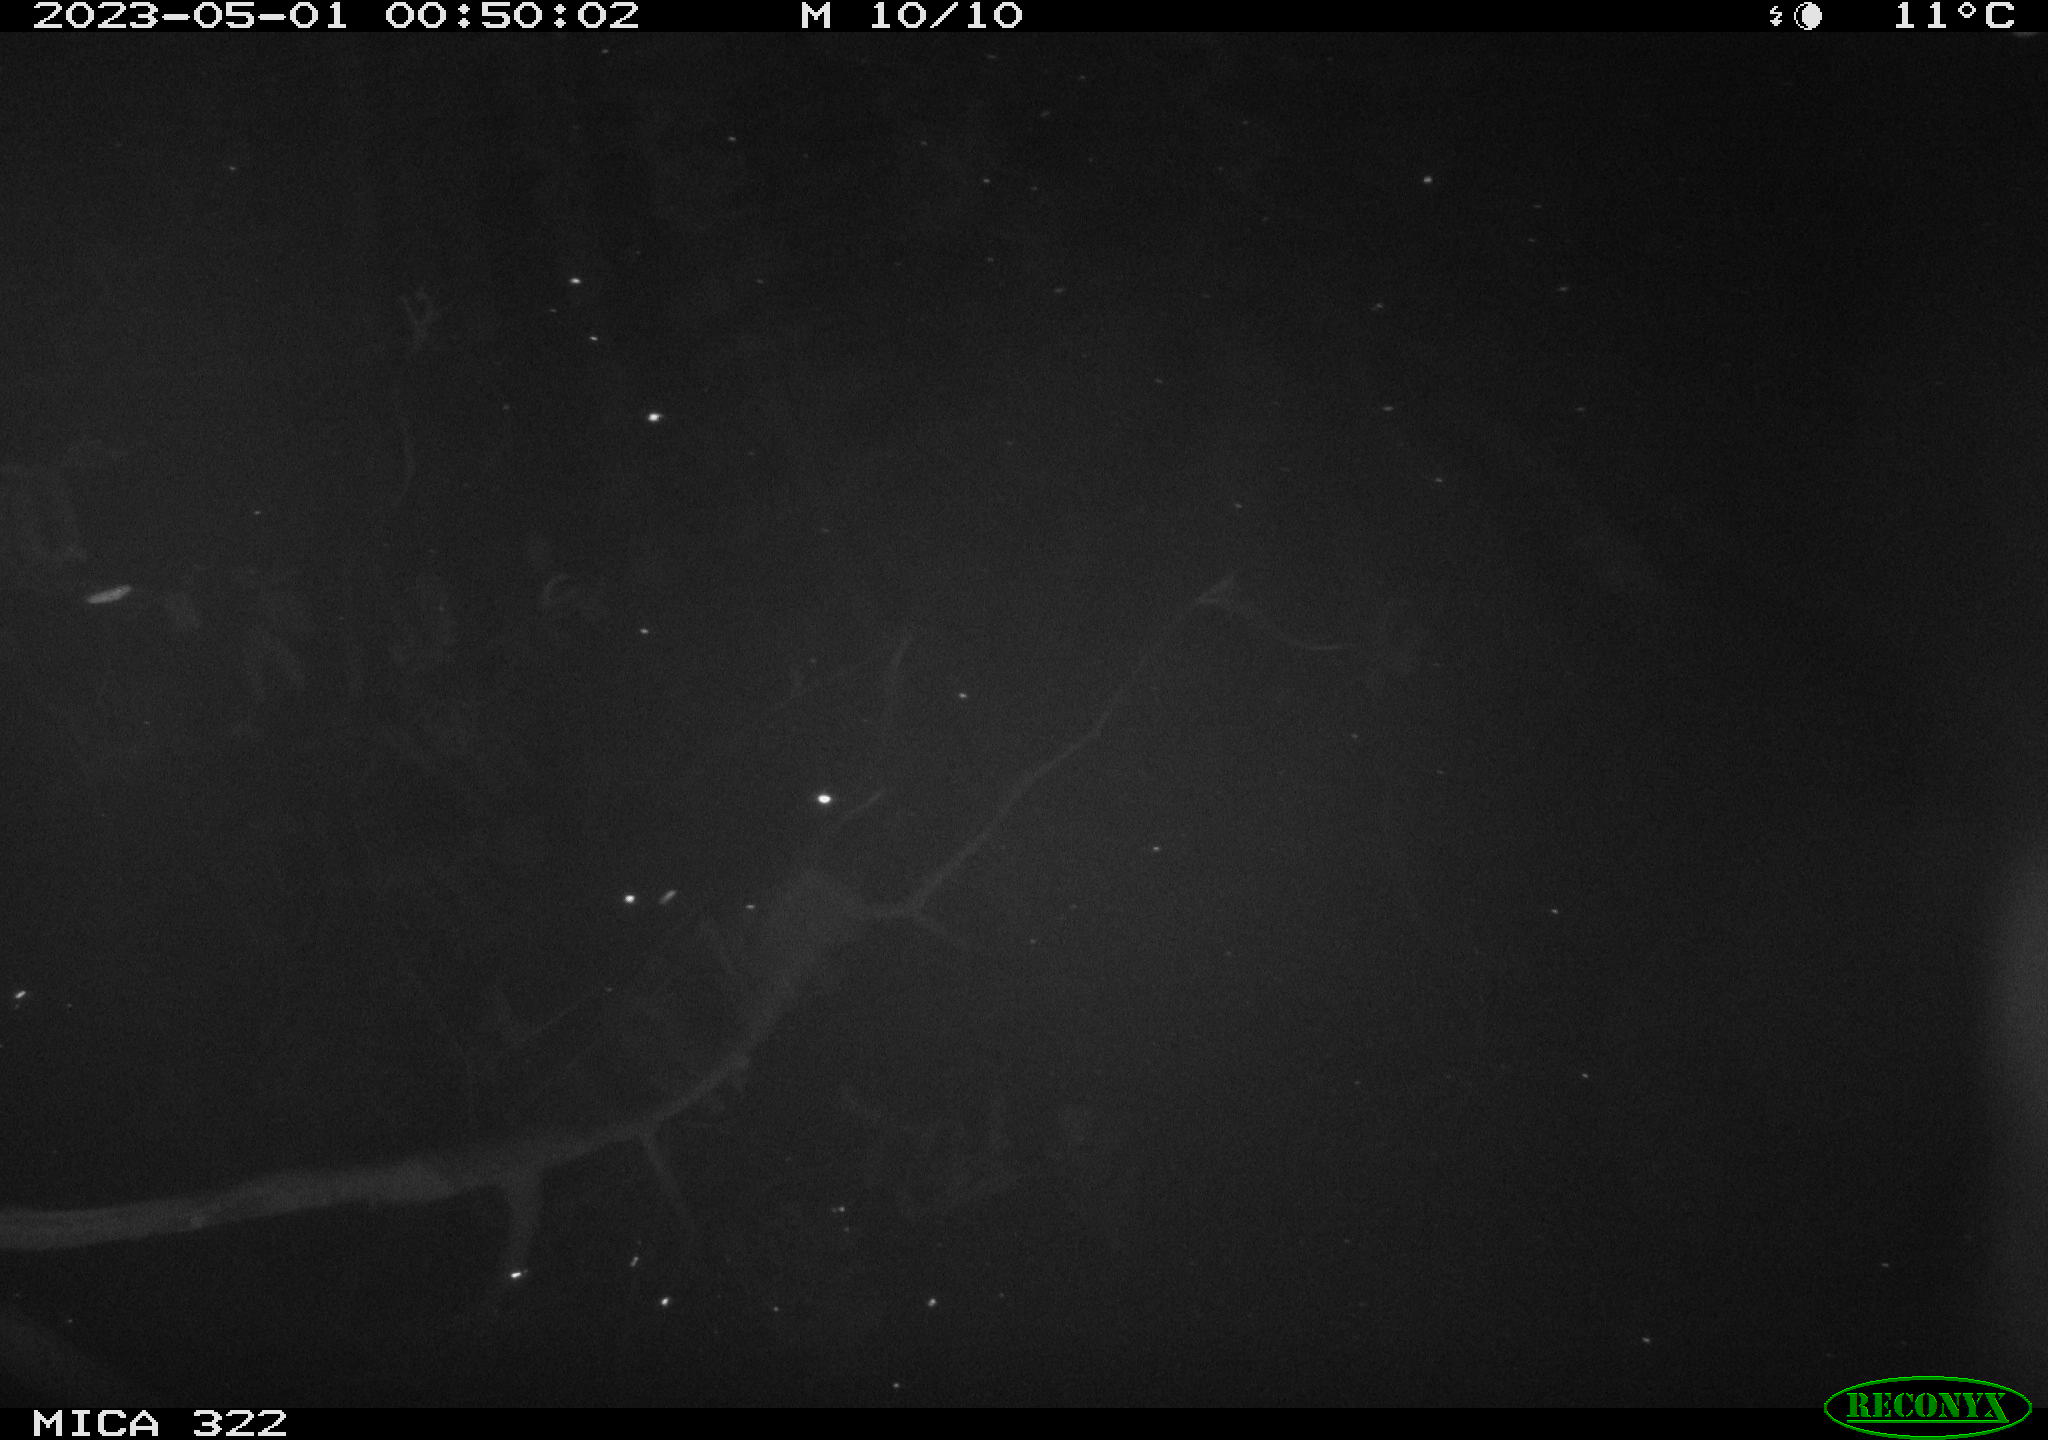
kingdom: Animalia
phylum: Chordata
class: Mammalia
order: Rodentia
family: Muridae
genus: Rattus
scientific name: Rattus norvegicus
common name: Brown rat
